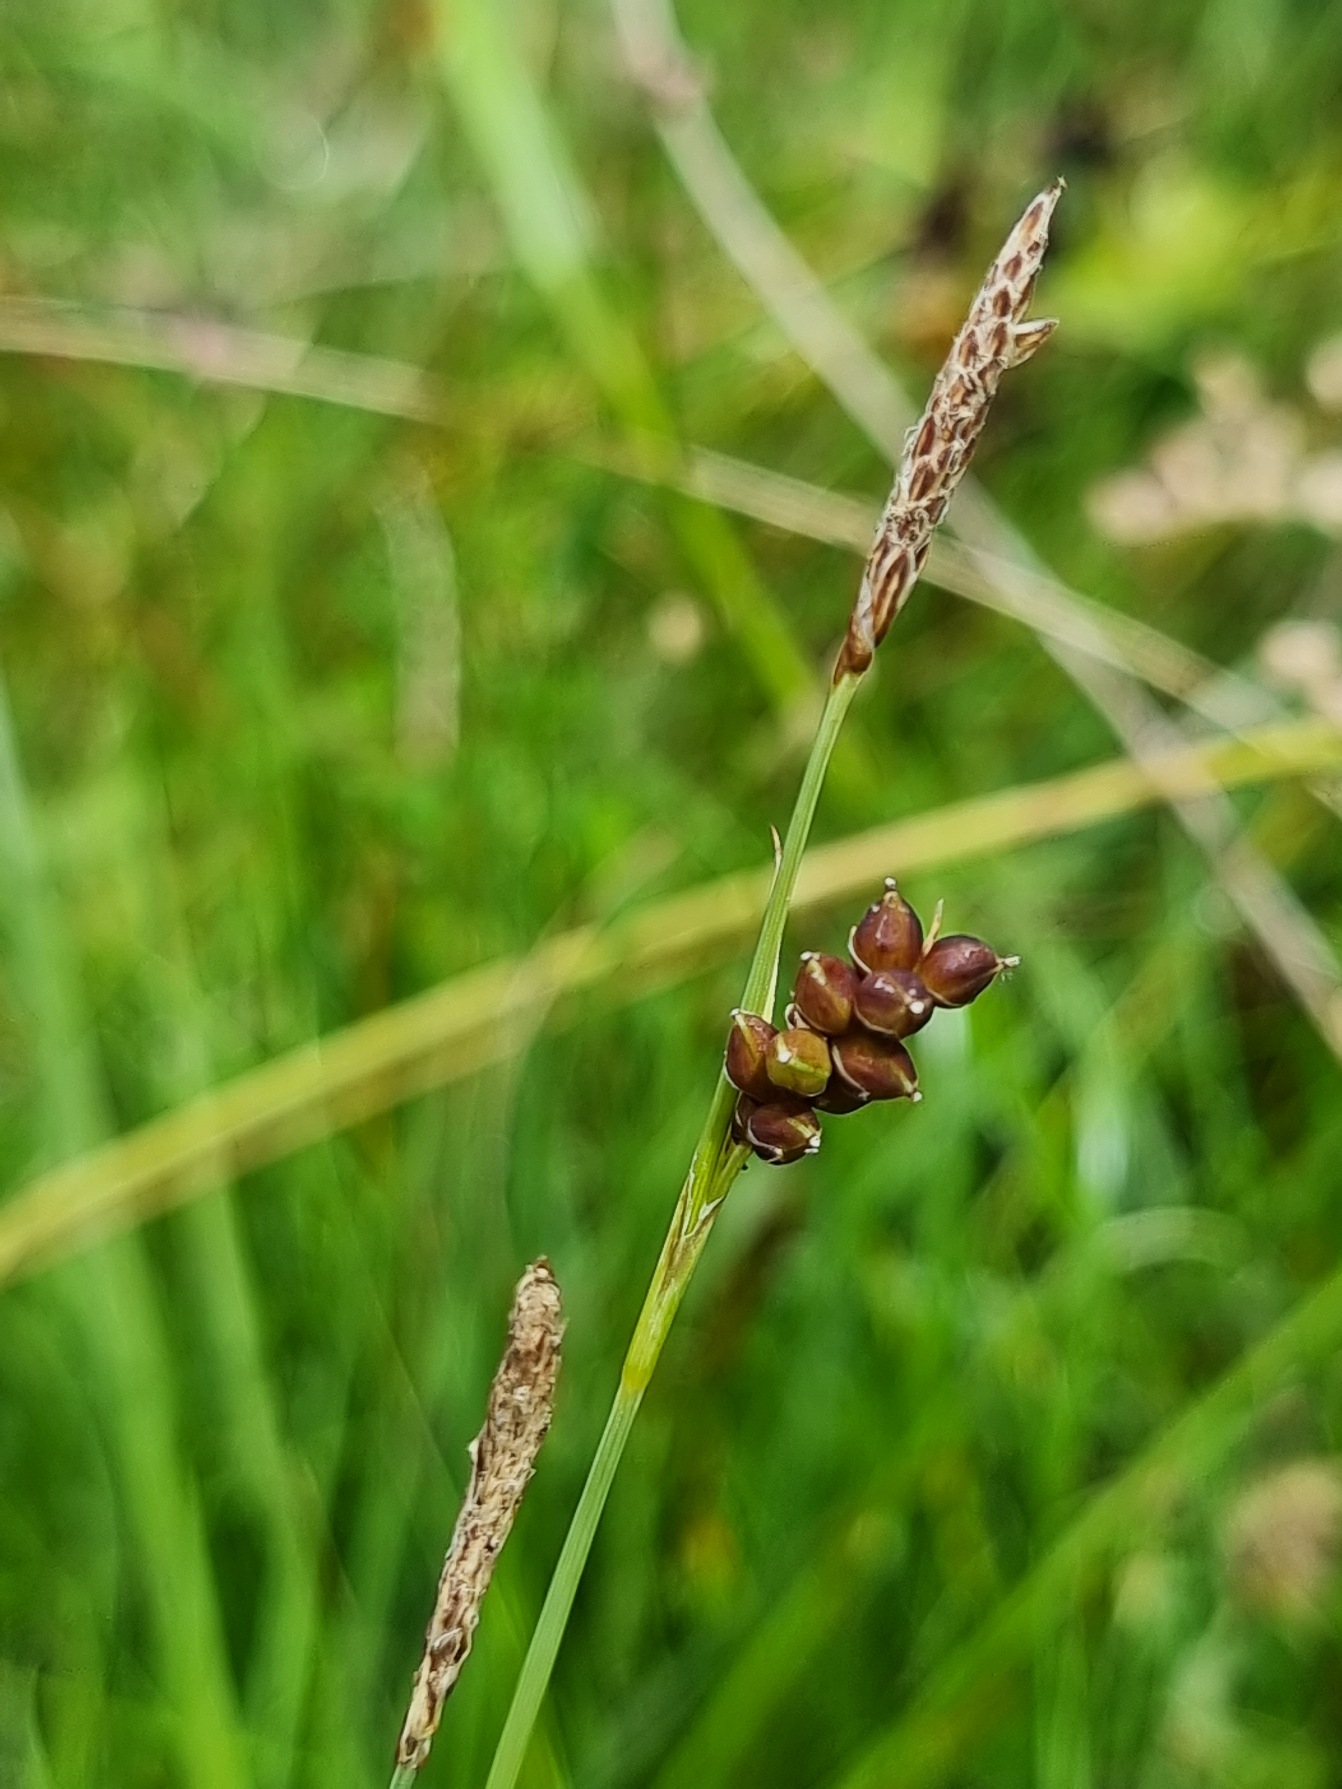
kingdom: Plantae
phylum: Tracheophyta
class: Liliopsida
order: Poales
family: Cyperaceae
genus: Carex
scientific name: Carex panicea
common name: Hirse-star
